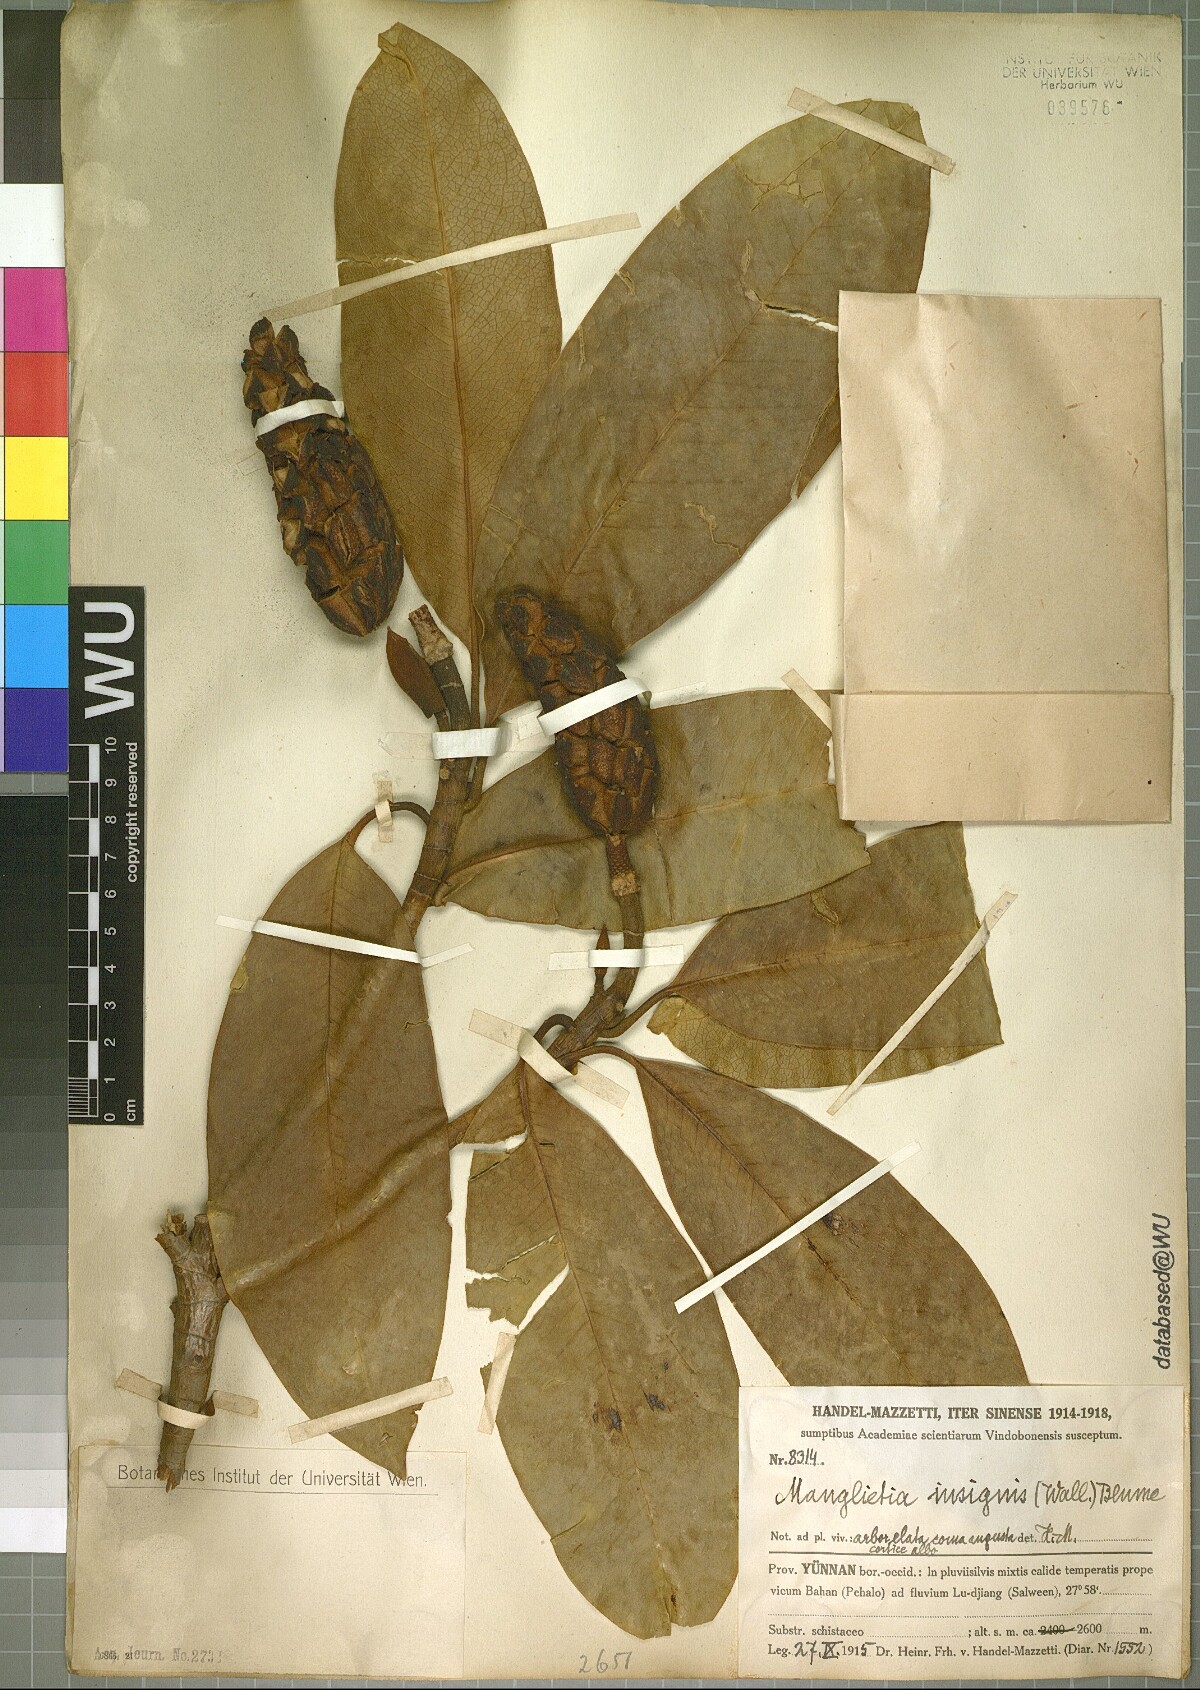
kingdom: Plantae
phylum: Tracheophyta
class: Magnoliopsida
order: Magnoliales
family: Magnoliaceae
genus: Magnolia
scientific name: Magnolia insignis
